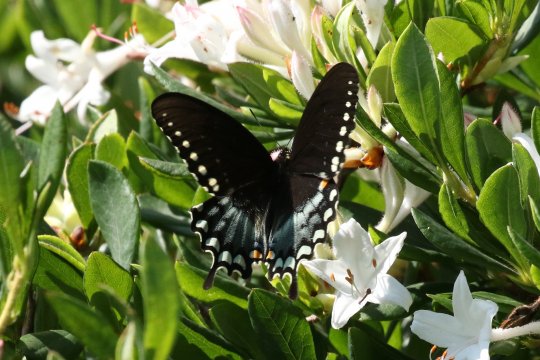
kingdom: Animalia
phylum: Arthropoda
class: Insecta
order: Lepidoptera
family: Papilionidae
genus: Pterourus
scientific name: Pterourus troilus
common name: Spicebush Swallowtail
